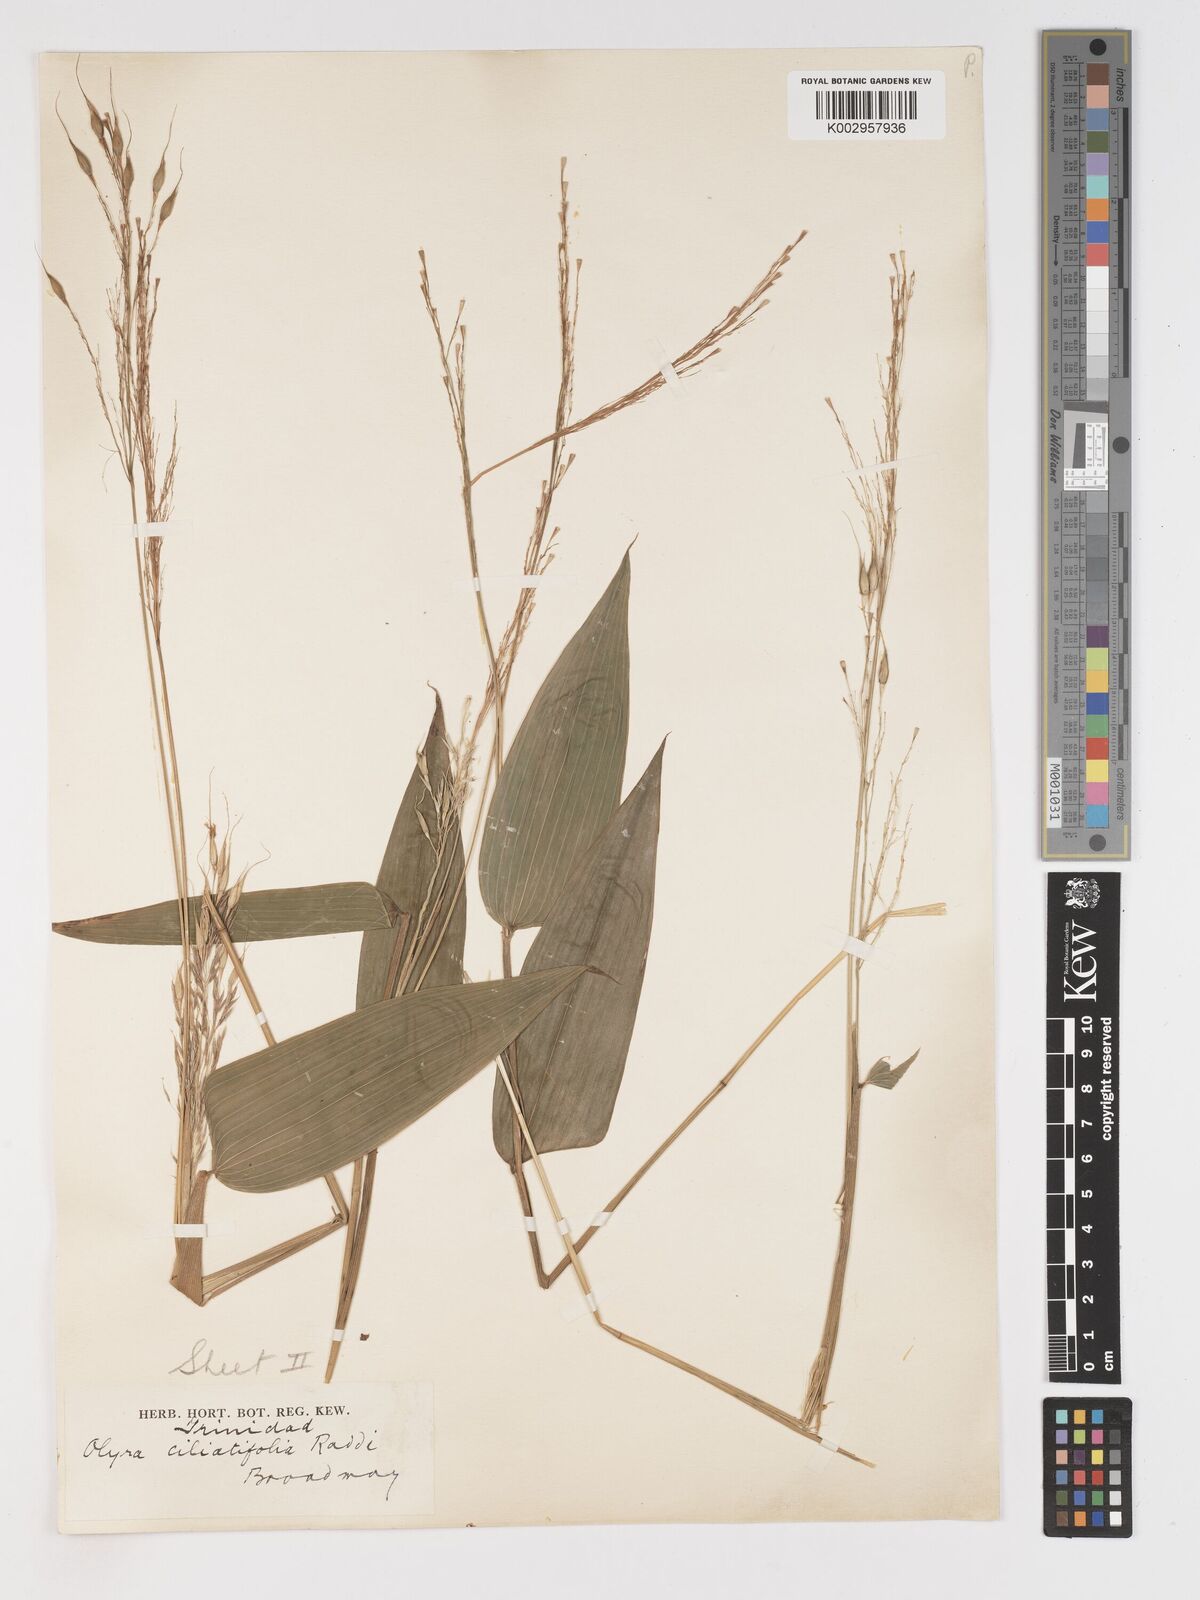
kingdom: Plantae
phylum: Tracheophyta
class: Liliopsida
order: Poales
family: Poaceae
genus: Olyra
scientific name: Olyra ciliatifolia
